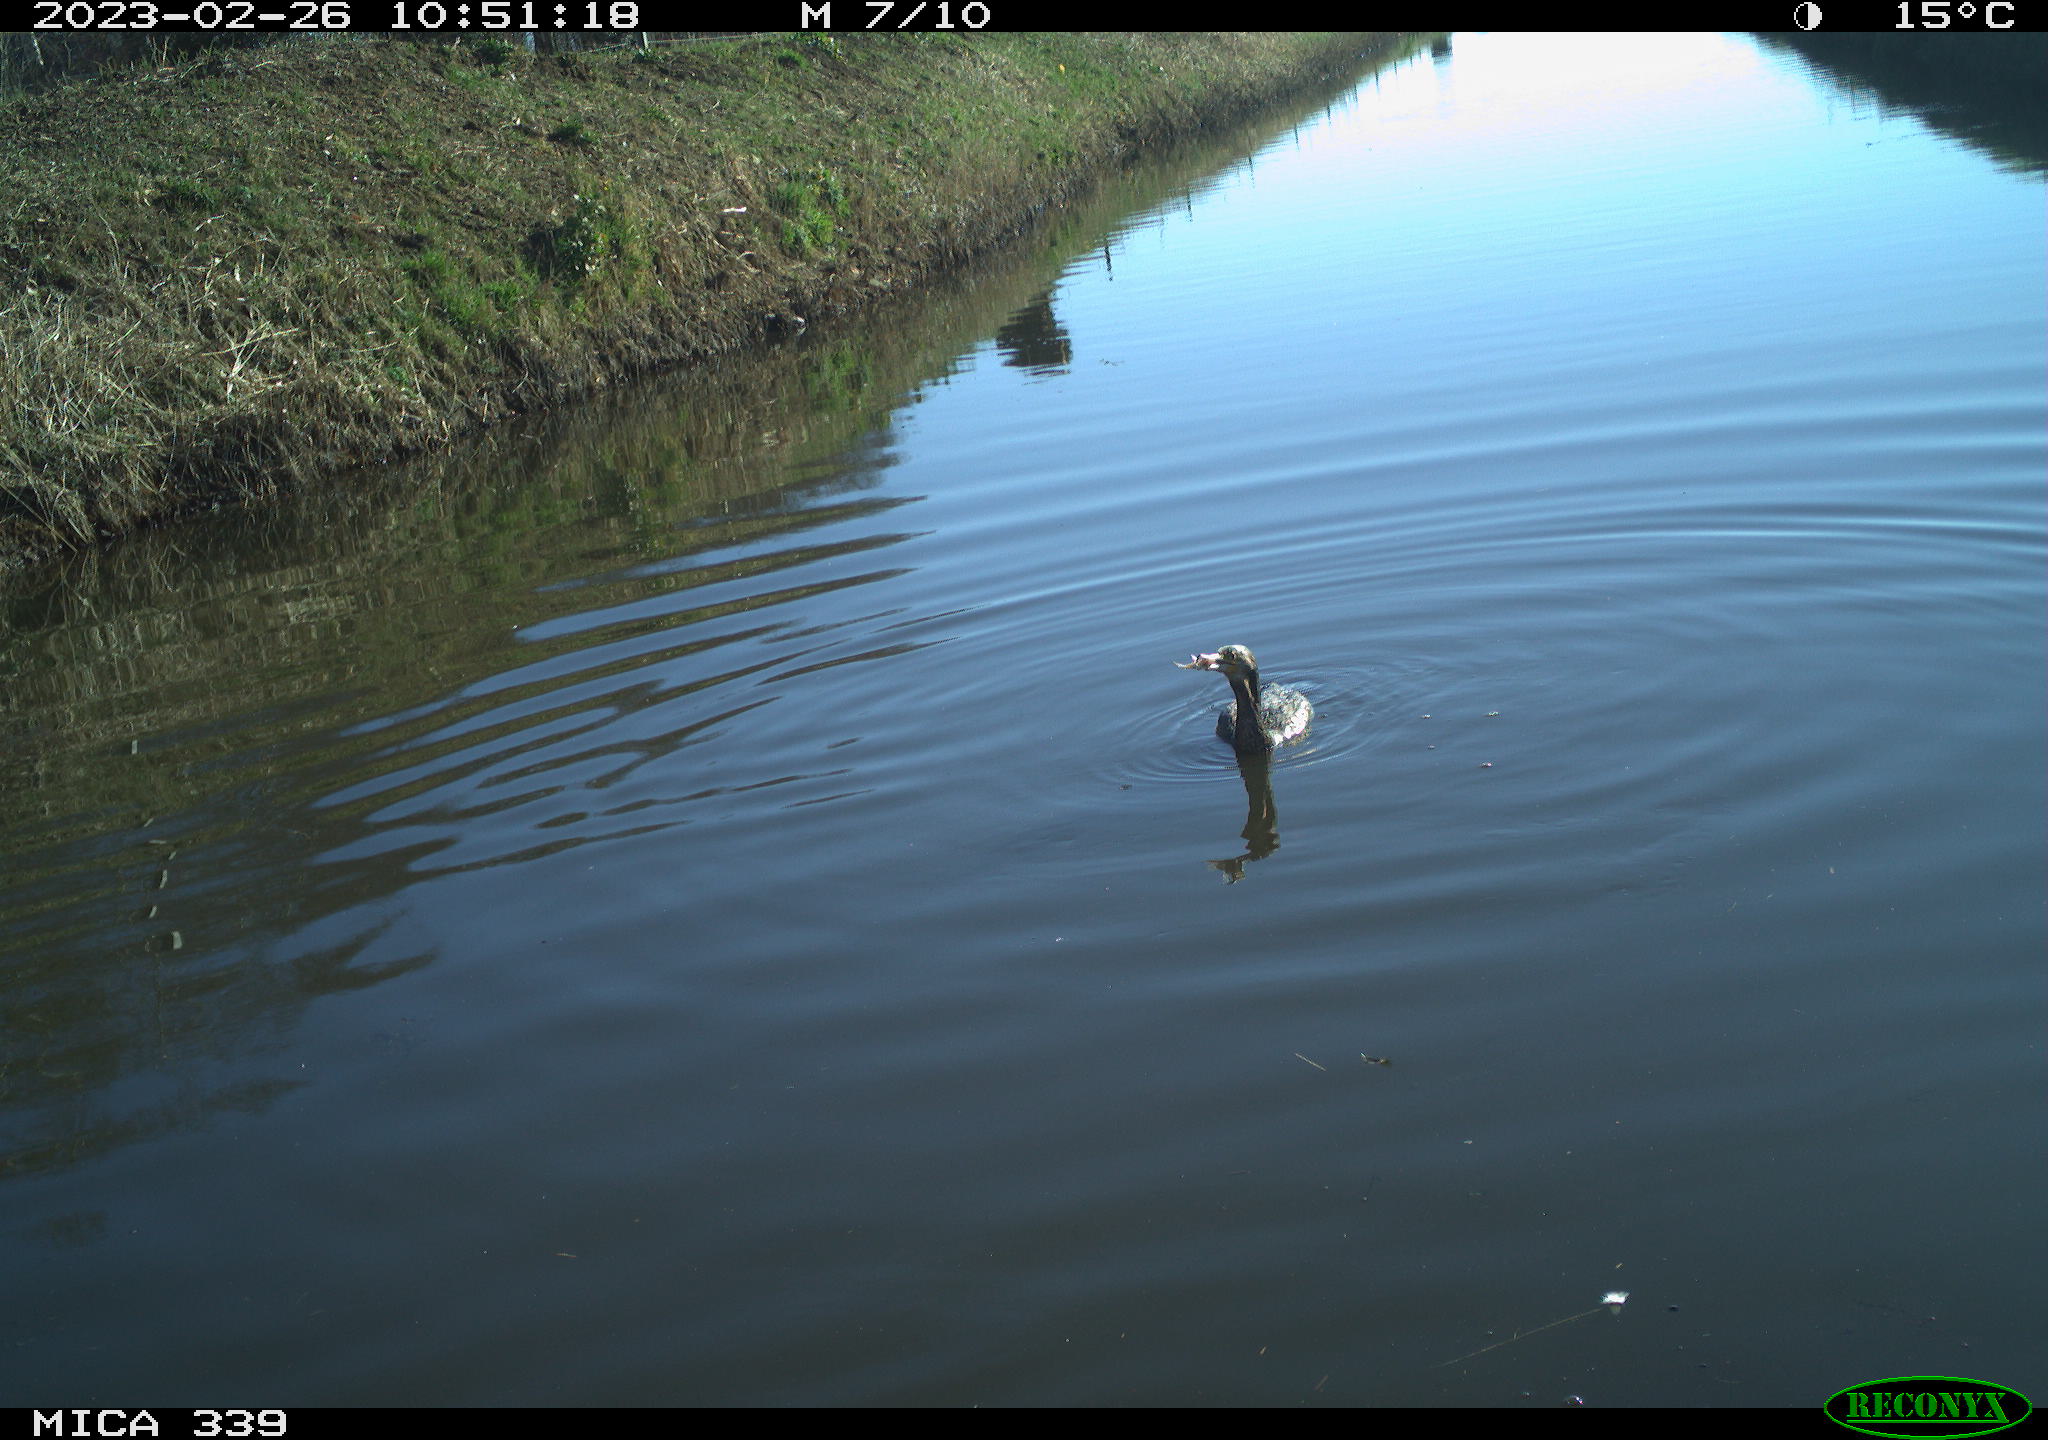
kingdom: Animalia
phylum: Chordata
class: Aves
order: Suliformes
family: Phalacrocoracidae
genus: Phalacrocorax
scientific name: Phalacrocorax carbo
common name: Great cormorant
